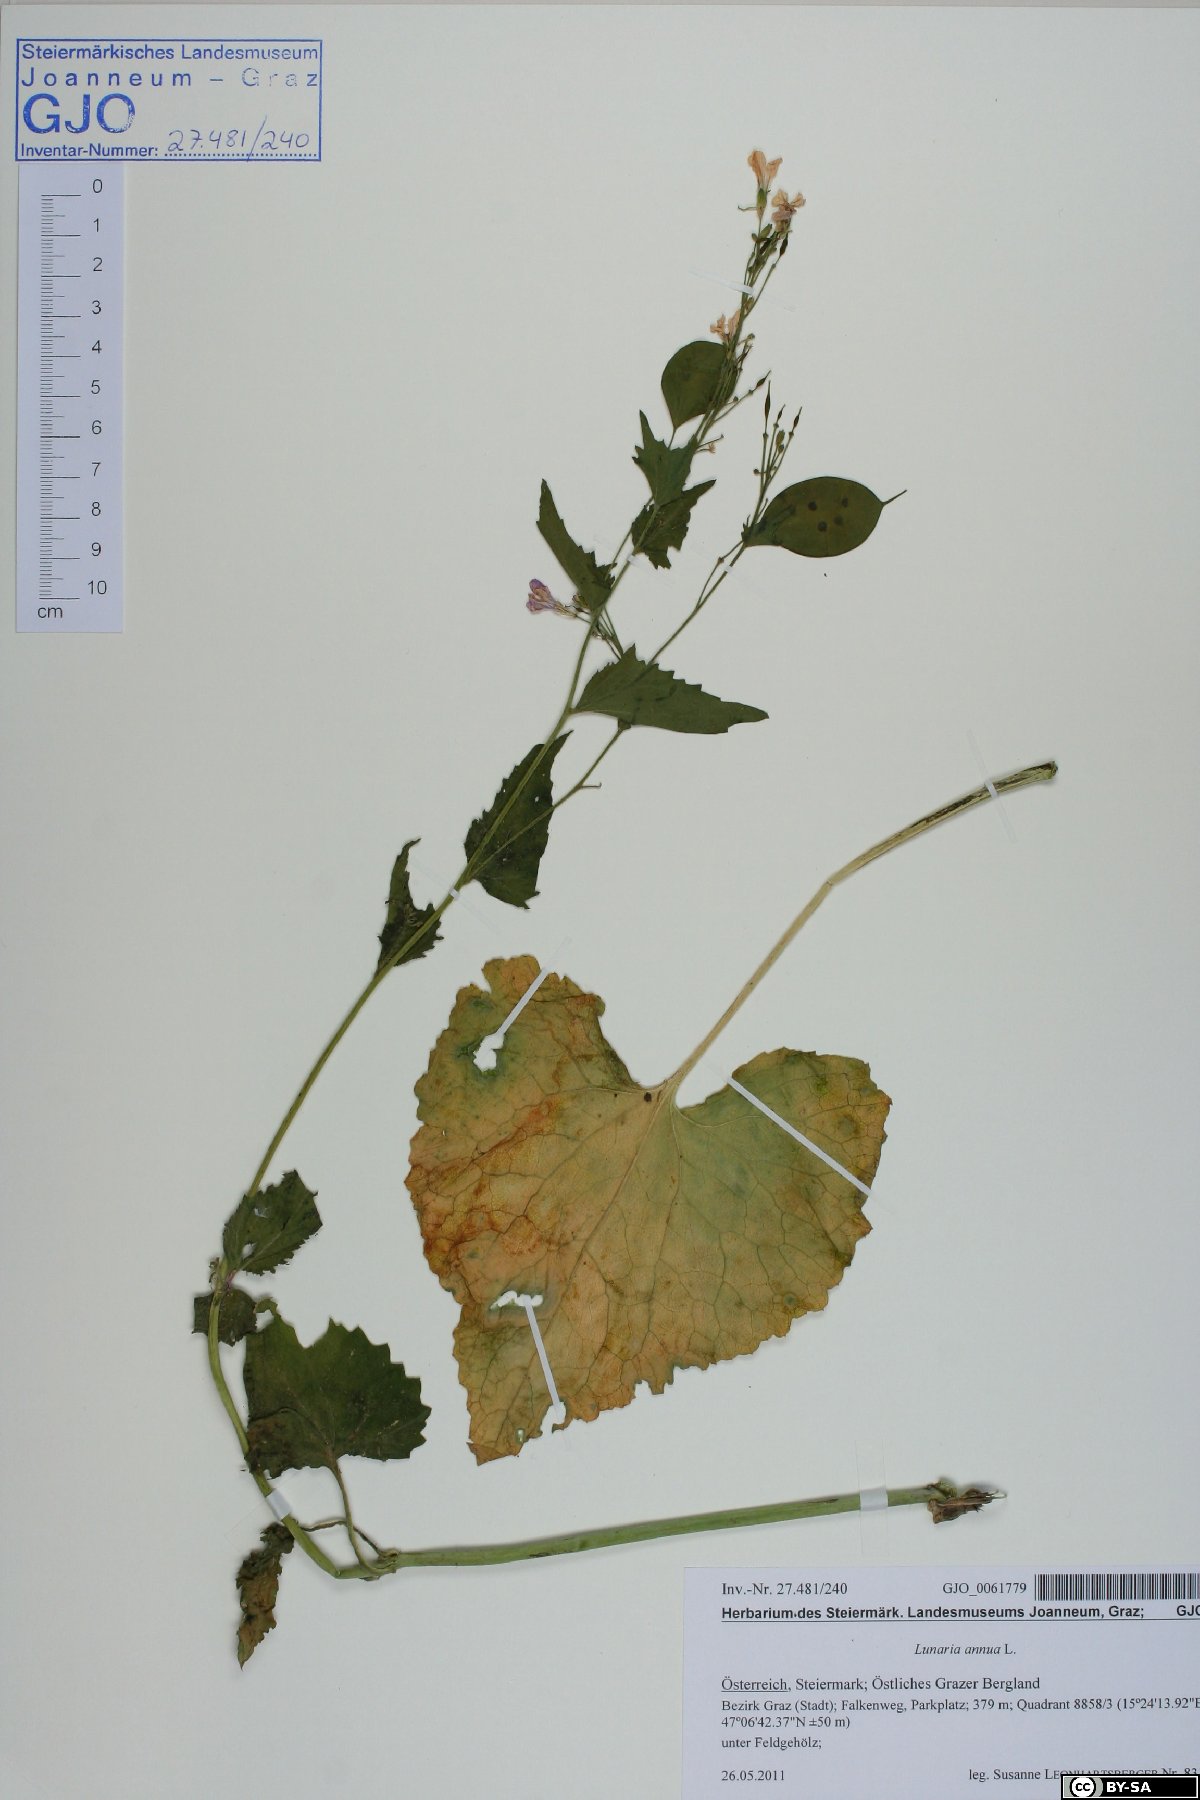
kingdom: Plantae
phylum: Tracheophyta
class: Magnoliopsida
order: Brassicales
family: Brassicaceae
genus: Lunaria
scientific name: Lunaria annua
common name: Honesty
